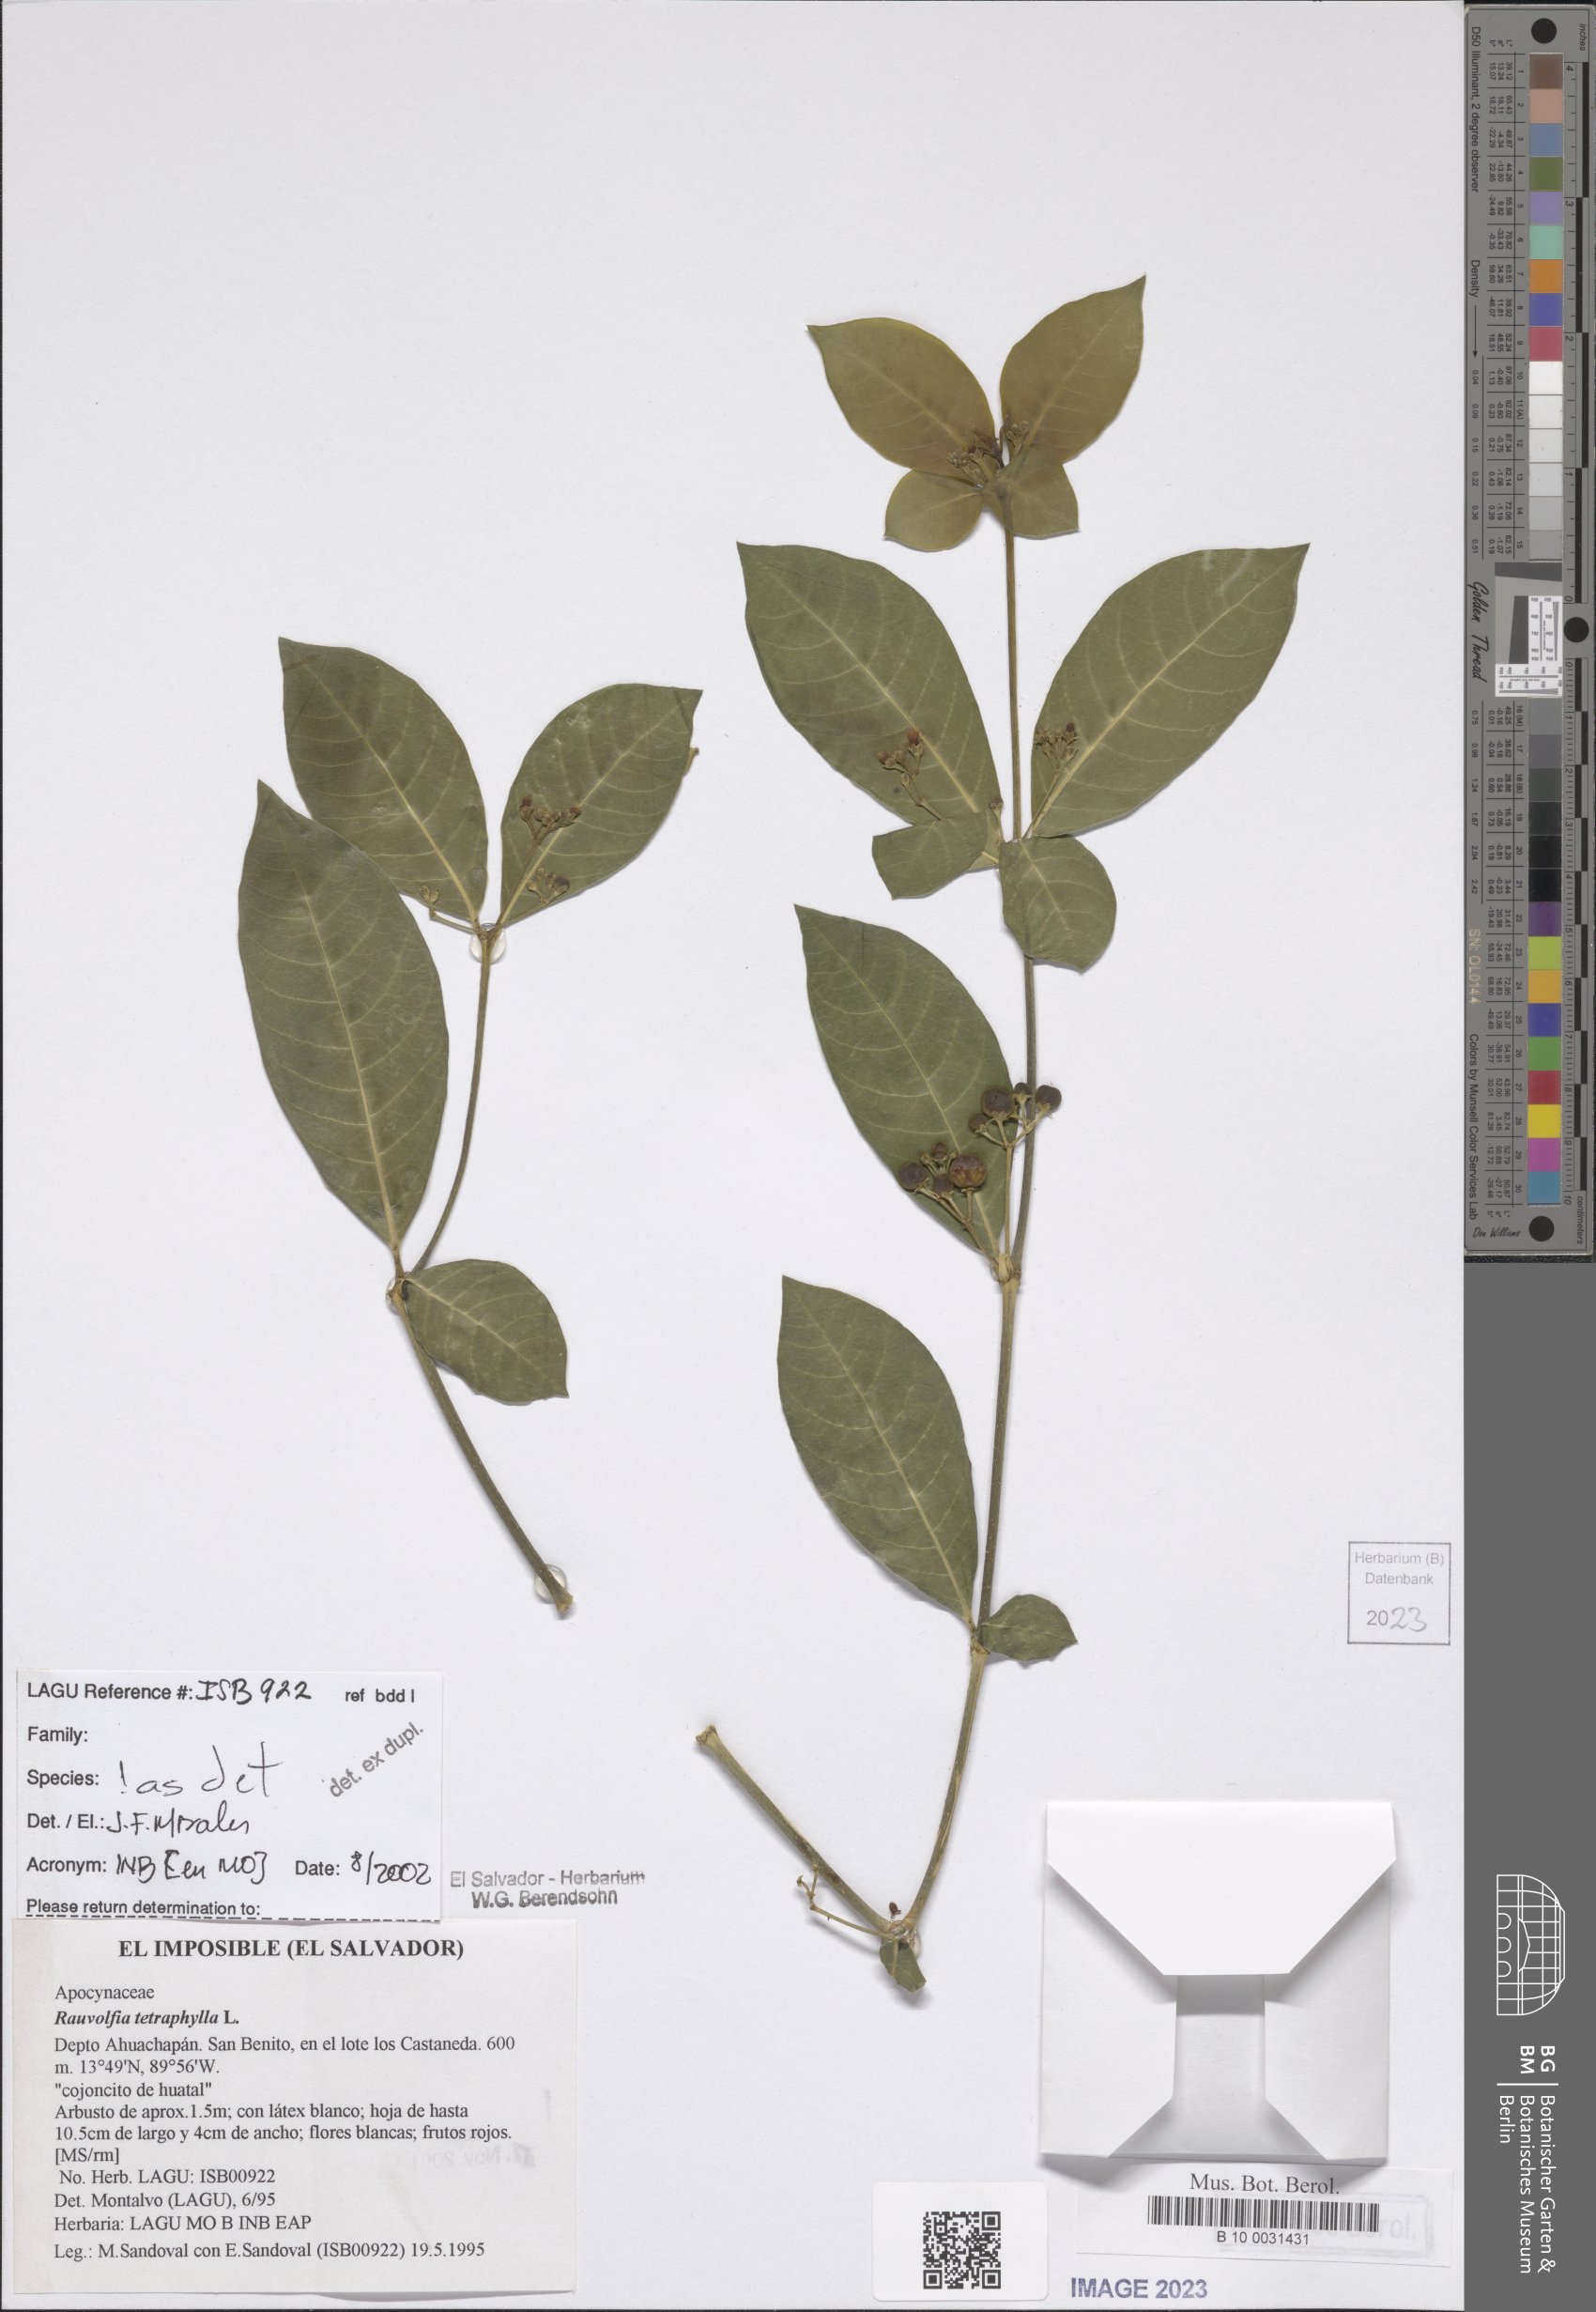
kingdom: Plantae
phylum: Tracheophyta
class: Magnoliopsida
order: Gentianales
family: Apocynaceae
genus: Rauvolfia
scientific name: Rauvolfia tetraphylla
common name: Four-leaf devil-pepper
